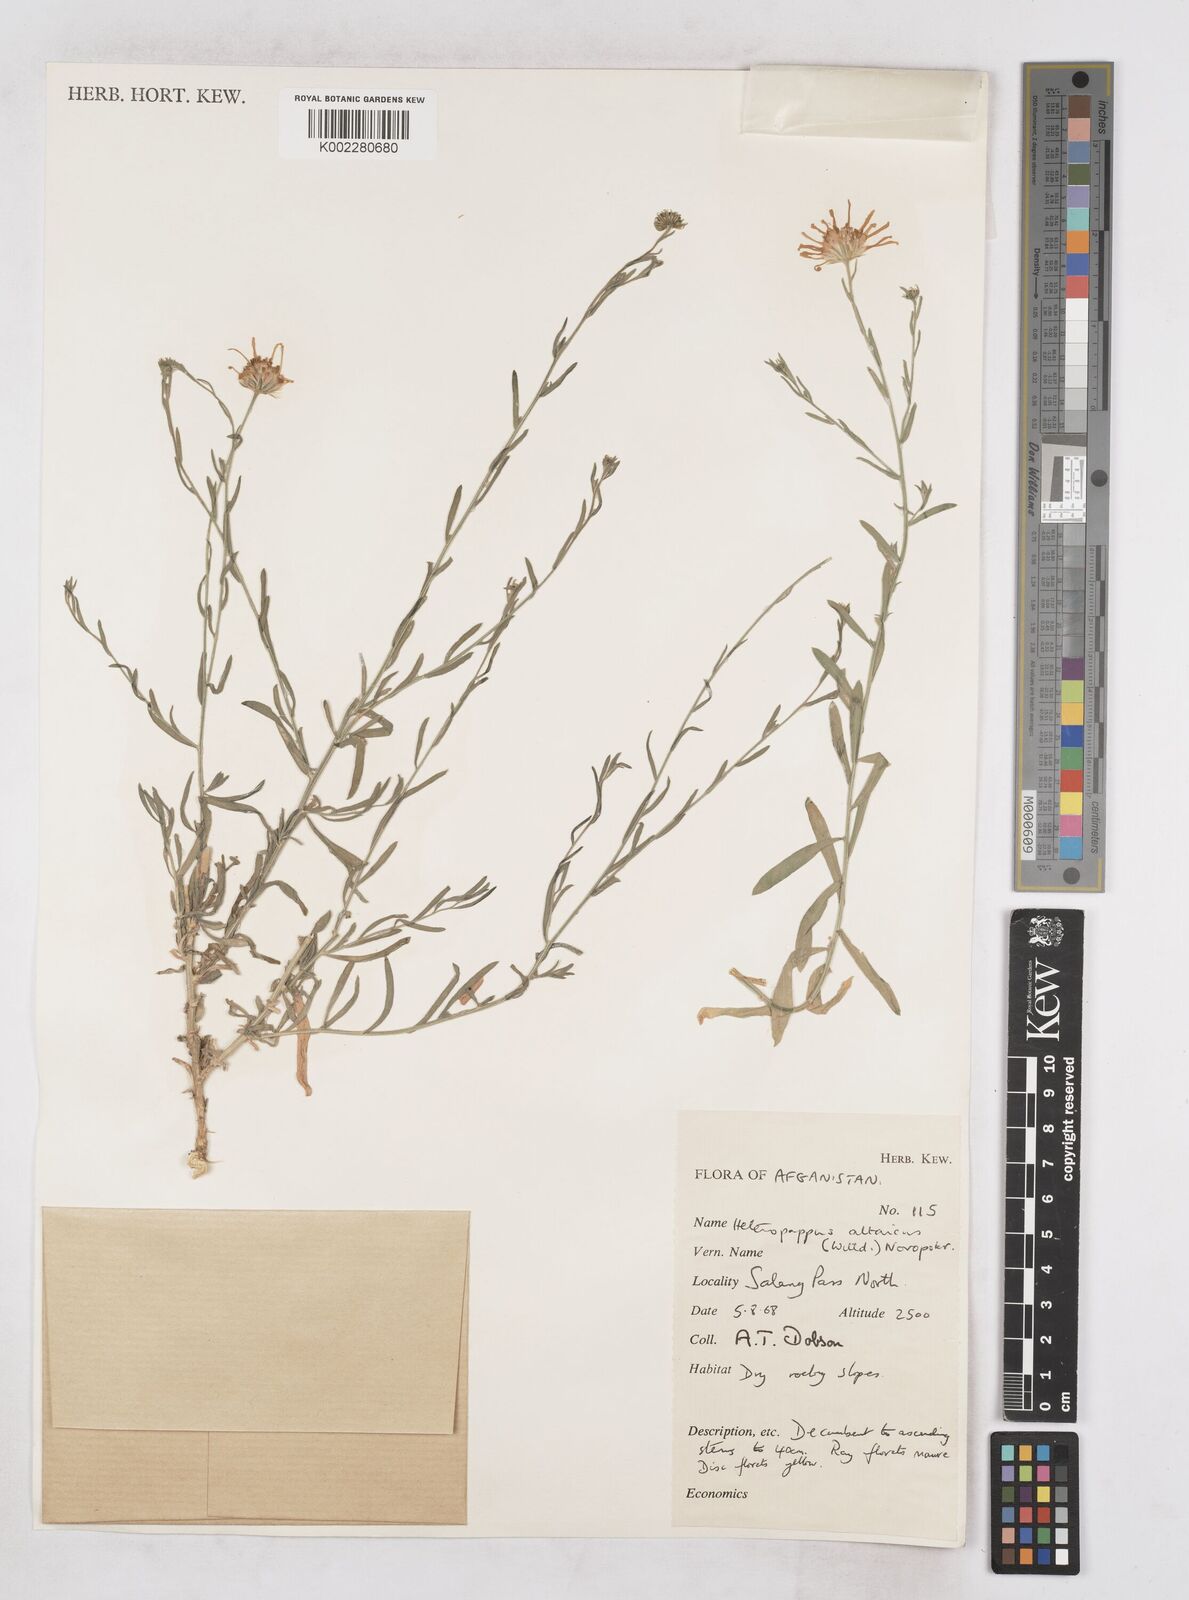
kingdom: Plantae
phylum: Tracheophyta
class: Magnoliopsida
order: Asterales
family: Asteraceae
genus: Heteropappus
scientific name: Heteropappus altaicus
